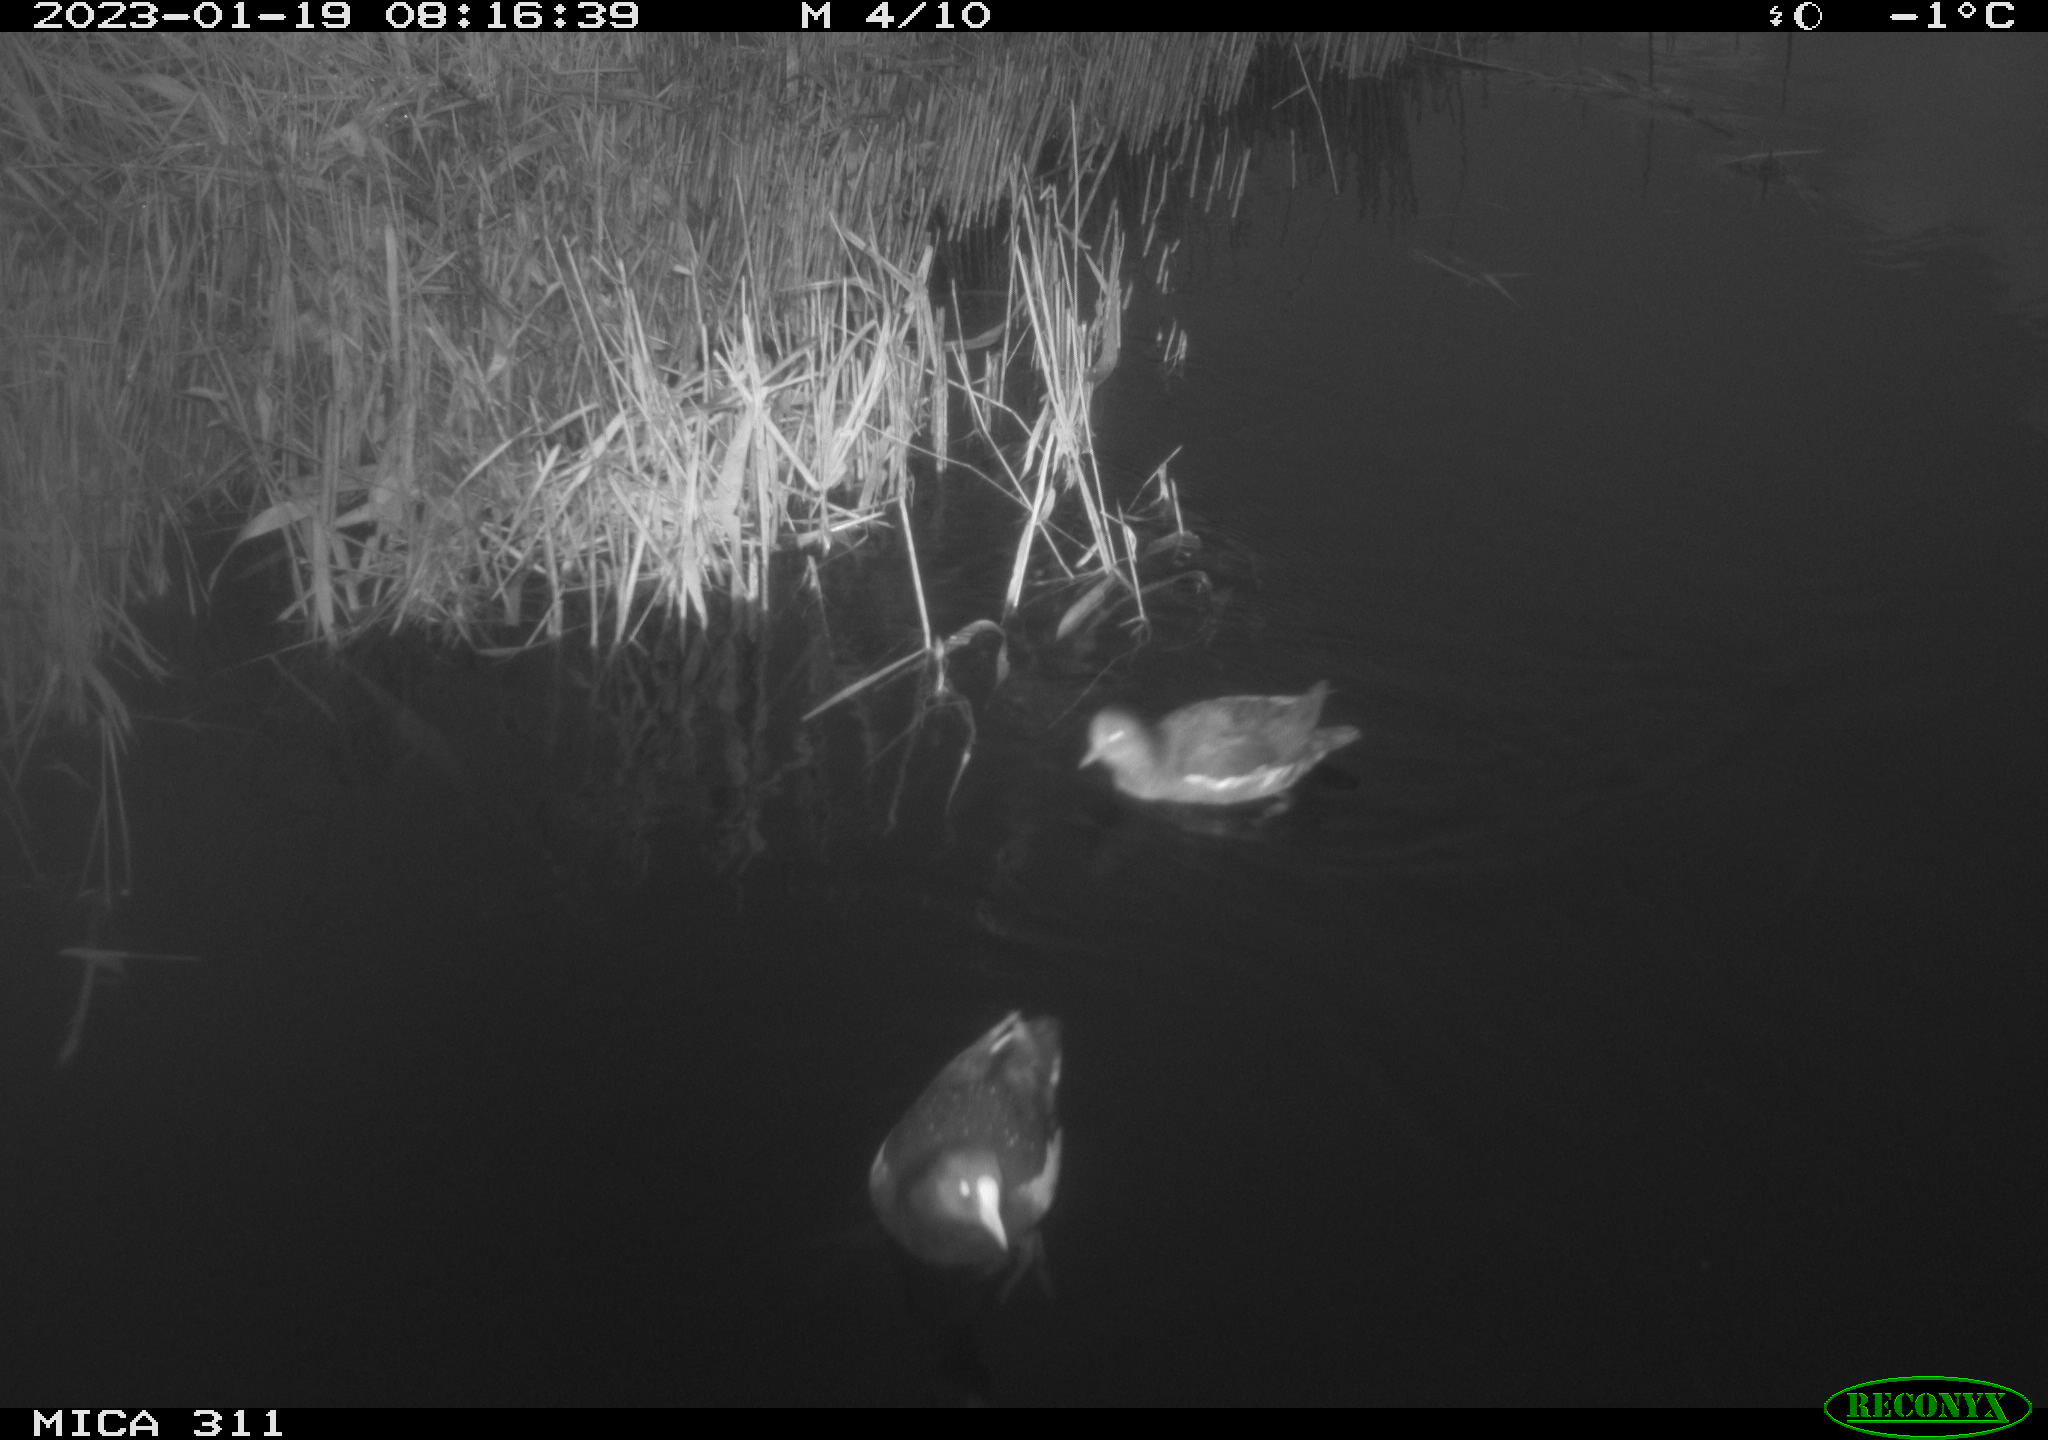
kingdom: Animalia
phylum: Chordata
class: Aves
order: Gruiformes
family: Rallidae
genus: Gallinula
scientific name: Gallinula chloropus
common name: Common moorhen
